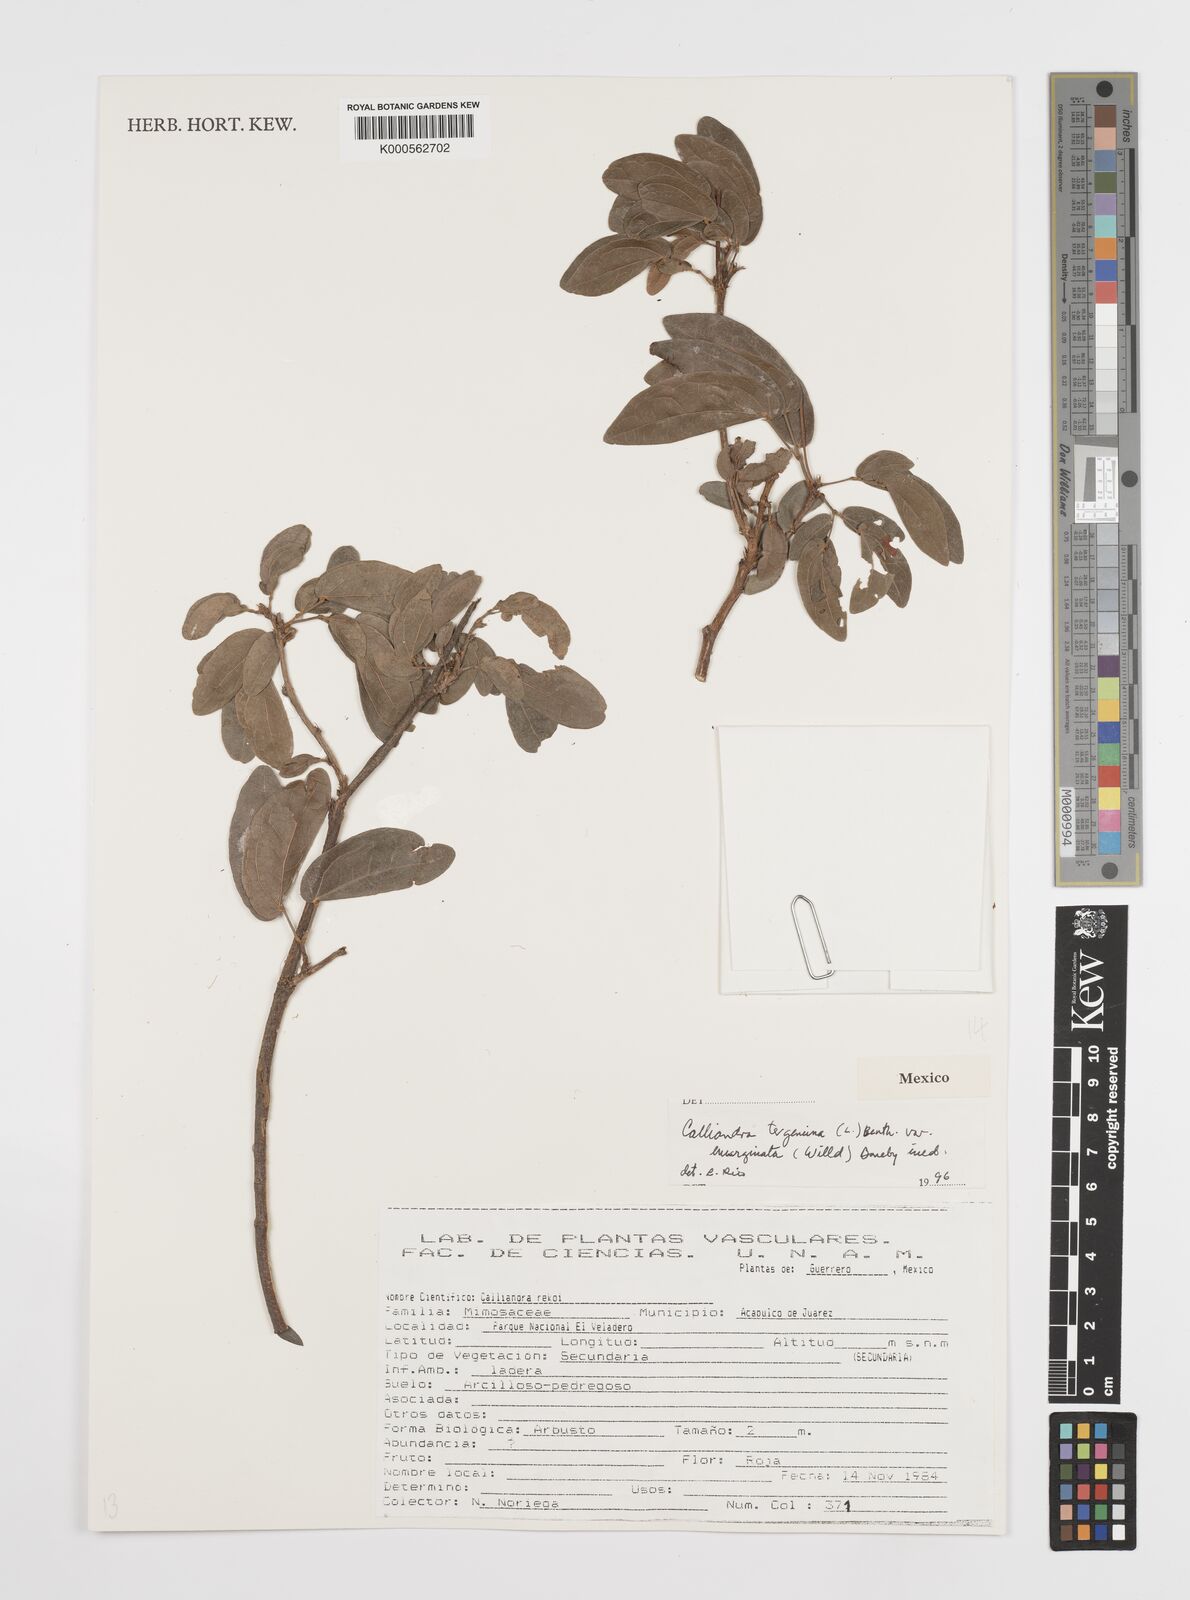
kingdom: Plantae
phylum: Tracheophyta
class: Magnoliopsida
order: Fabales
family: Fabaceae
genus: Calliandra
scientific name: Calliandra tergemina
